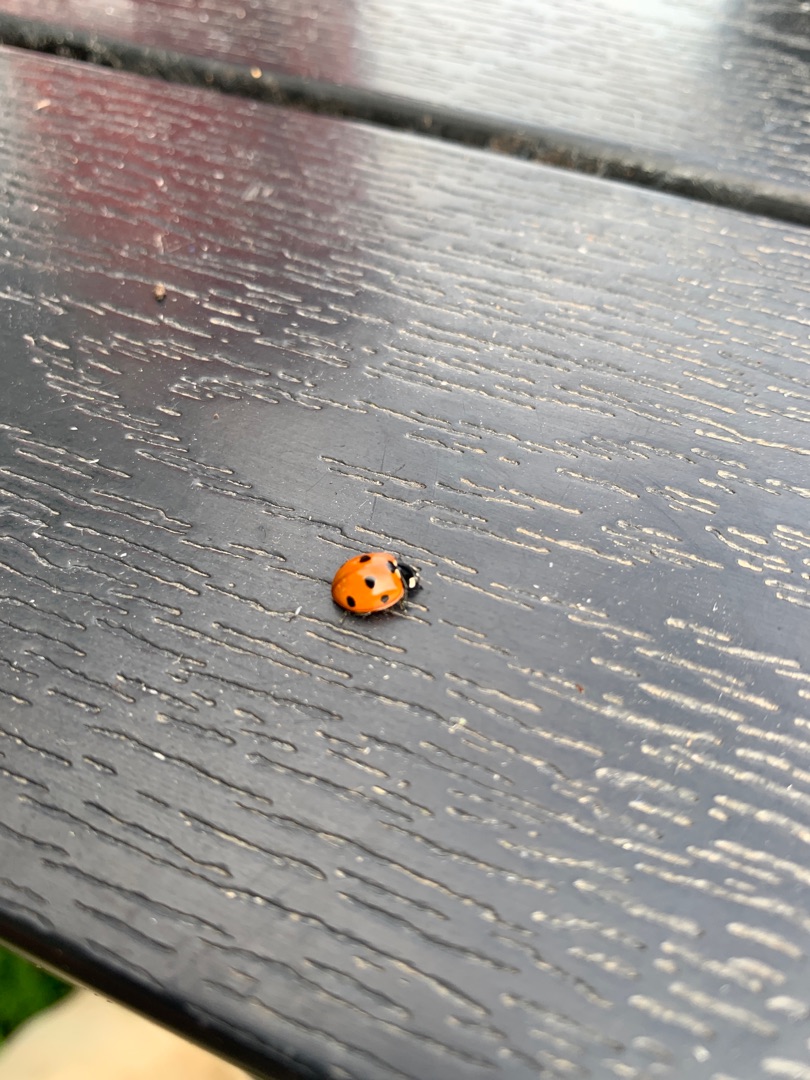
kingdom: Animalia
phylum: Arthropoda
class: Insecta
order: Coleoptera
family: Coccinellidae
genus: Coccinella
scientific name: Coccinella septempunctata
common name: Syvplettet mariehøne
